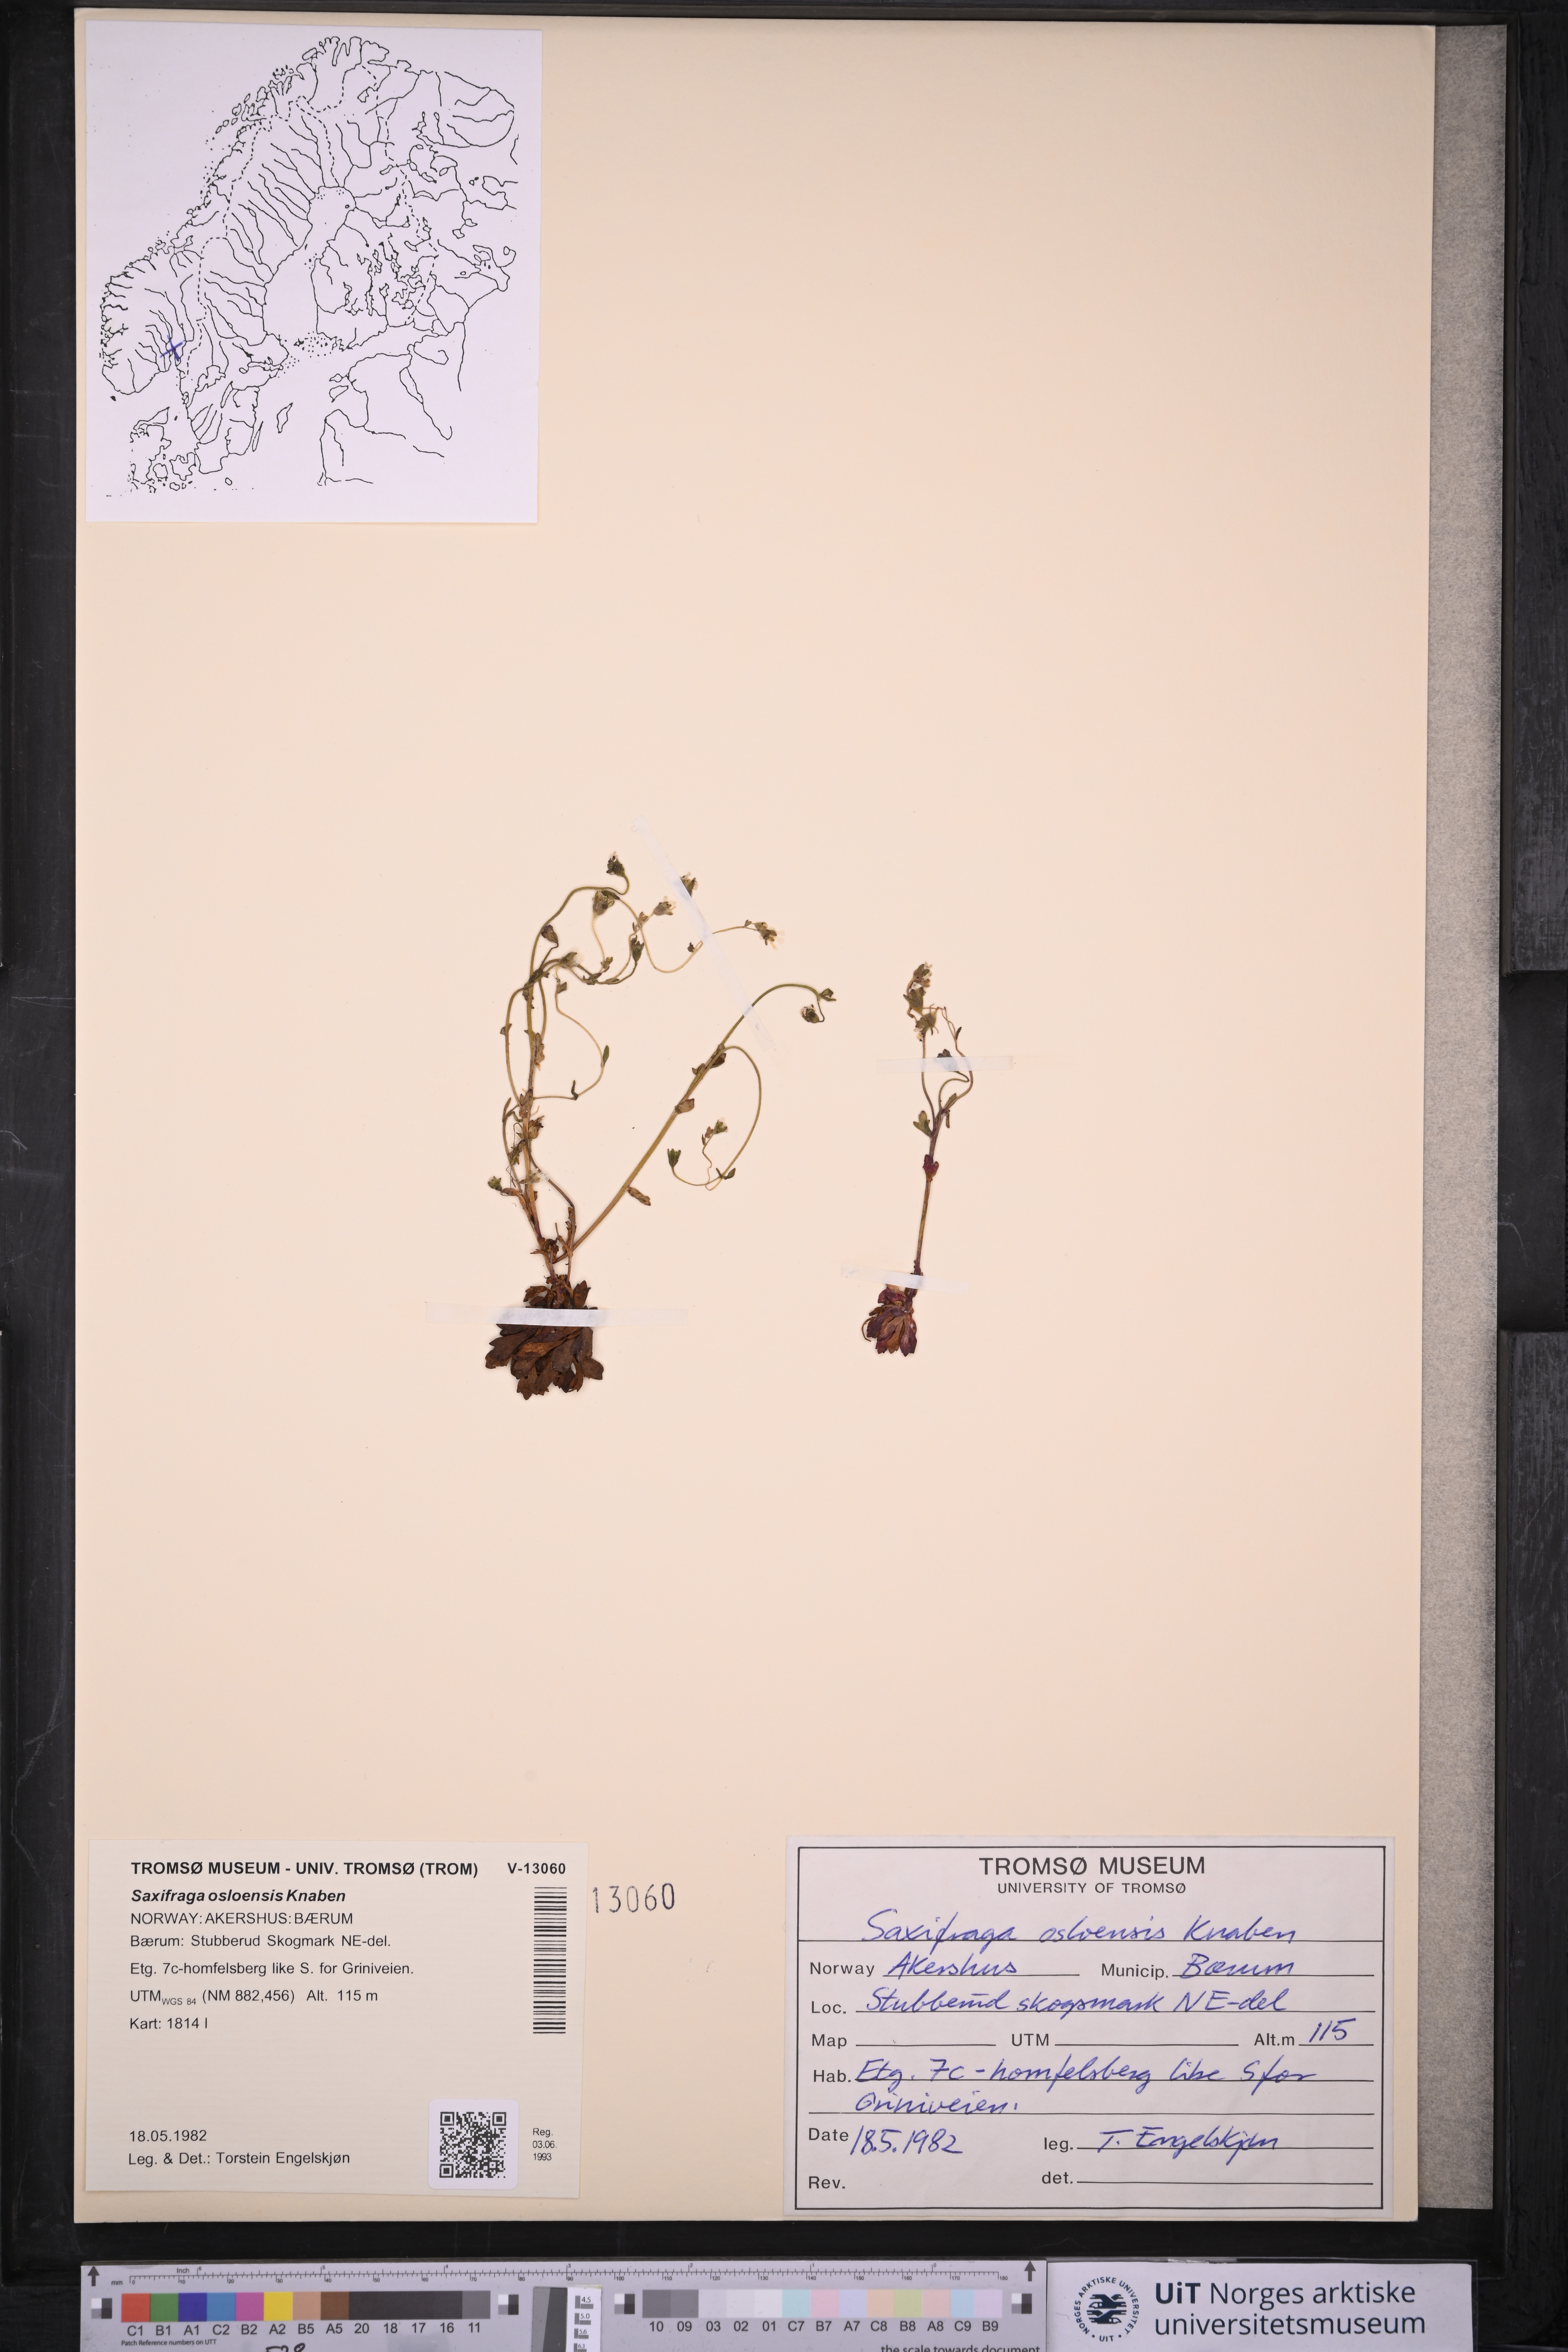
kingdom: Plantae
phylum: Tracheophyta
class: Magnoliopsida
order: Saxifragales
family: Saxifragaceae
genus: Saxifraga
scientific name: Saxifraga osloensis
